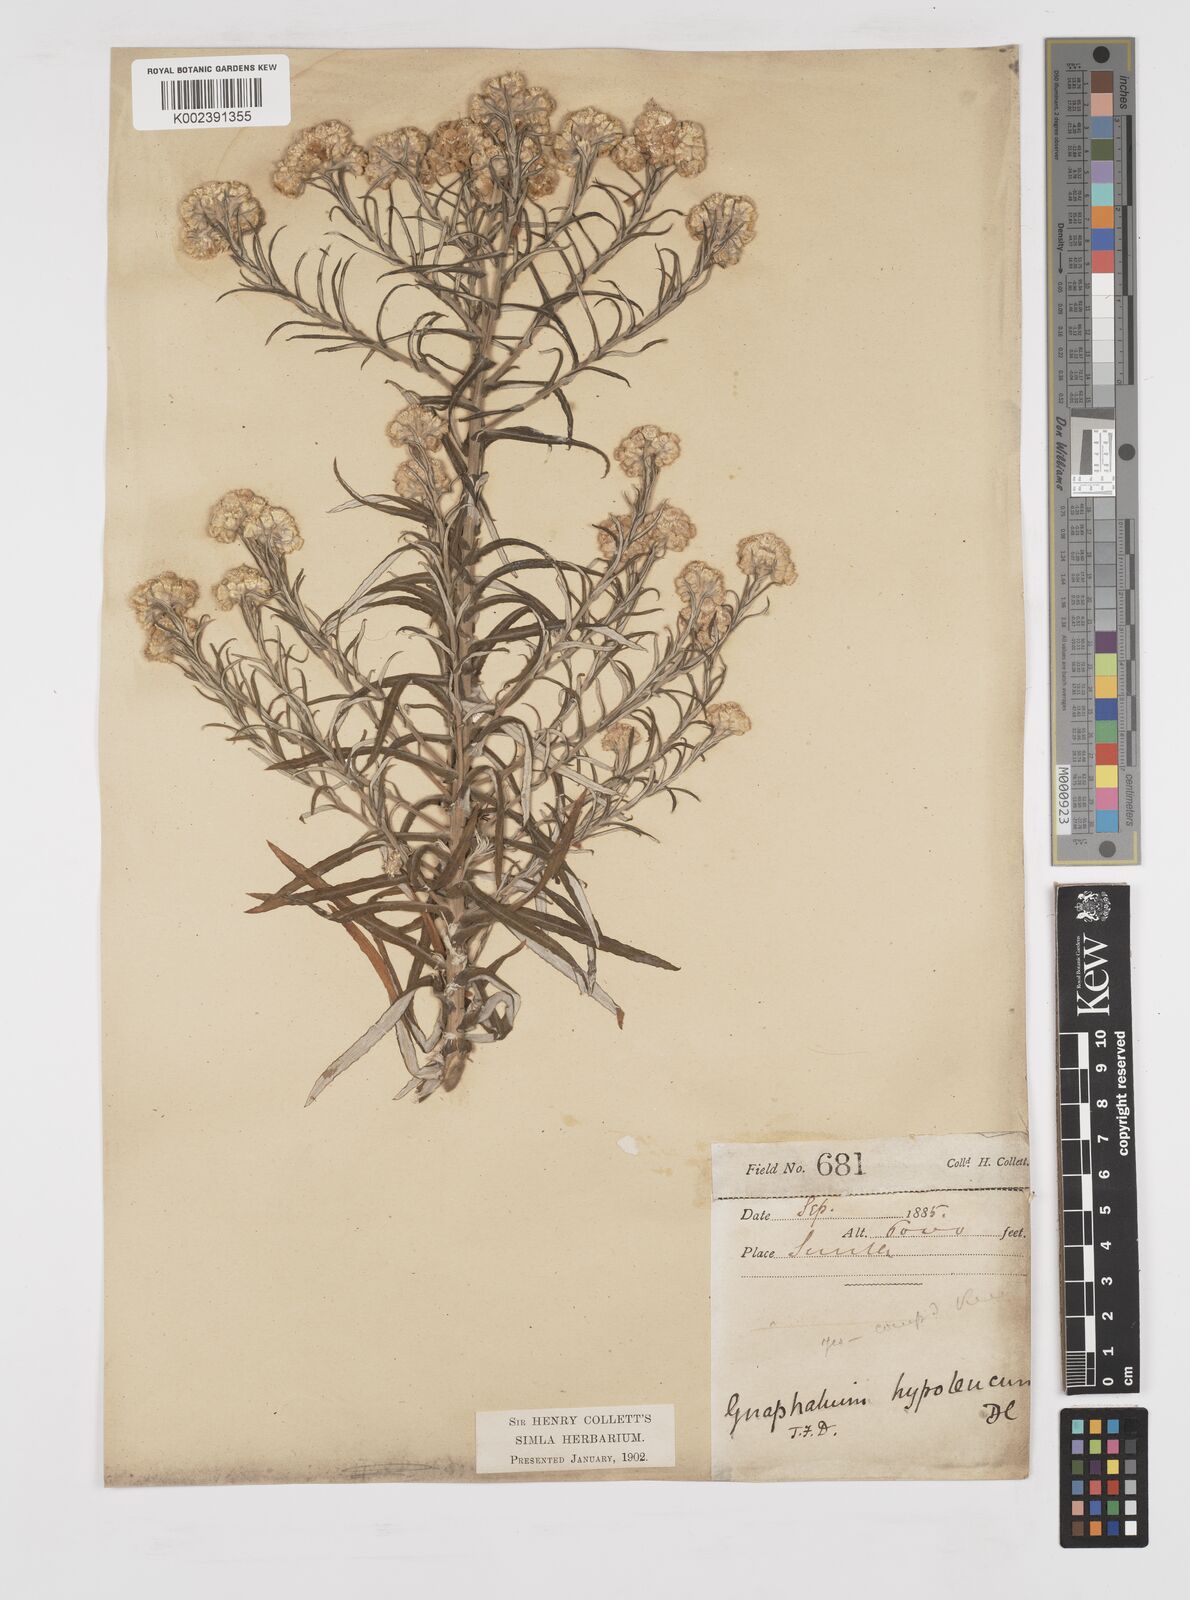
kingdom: Plantae
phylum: Tracheophyta
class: Magnoliopsida
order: Asterales
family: Asteraceae
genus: Pseudognaphalium
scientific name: Pseudognaphalium hypoleucum
